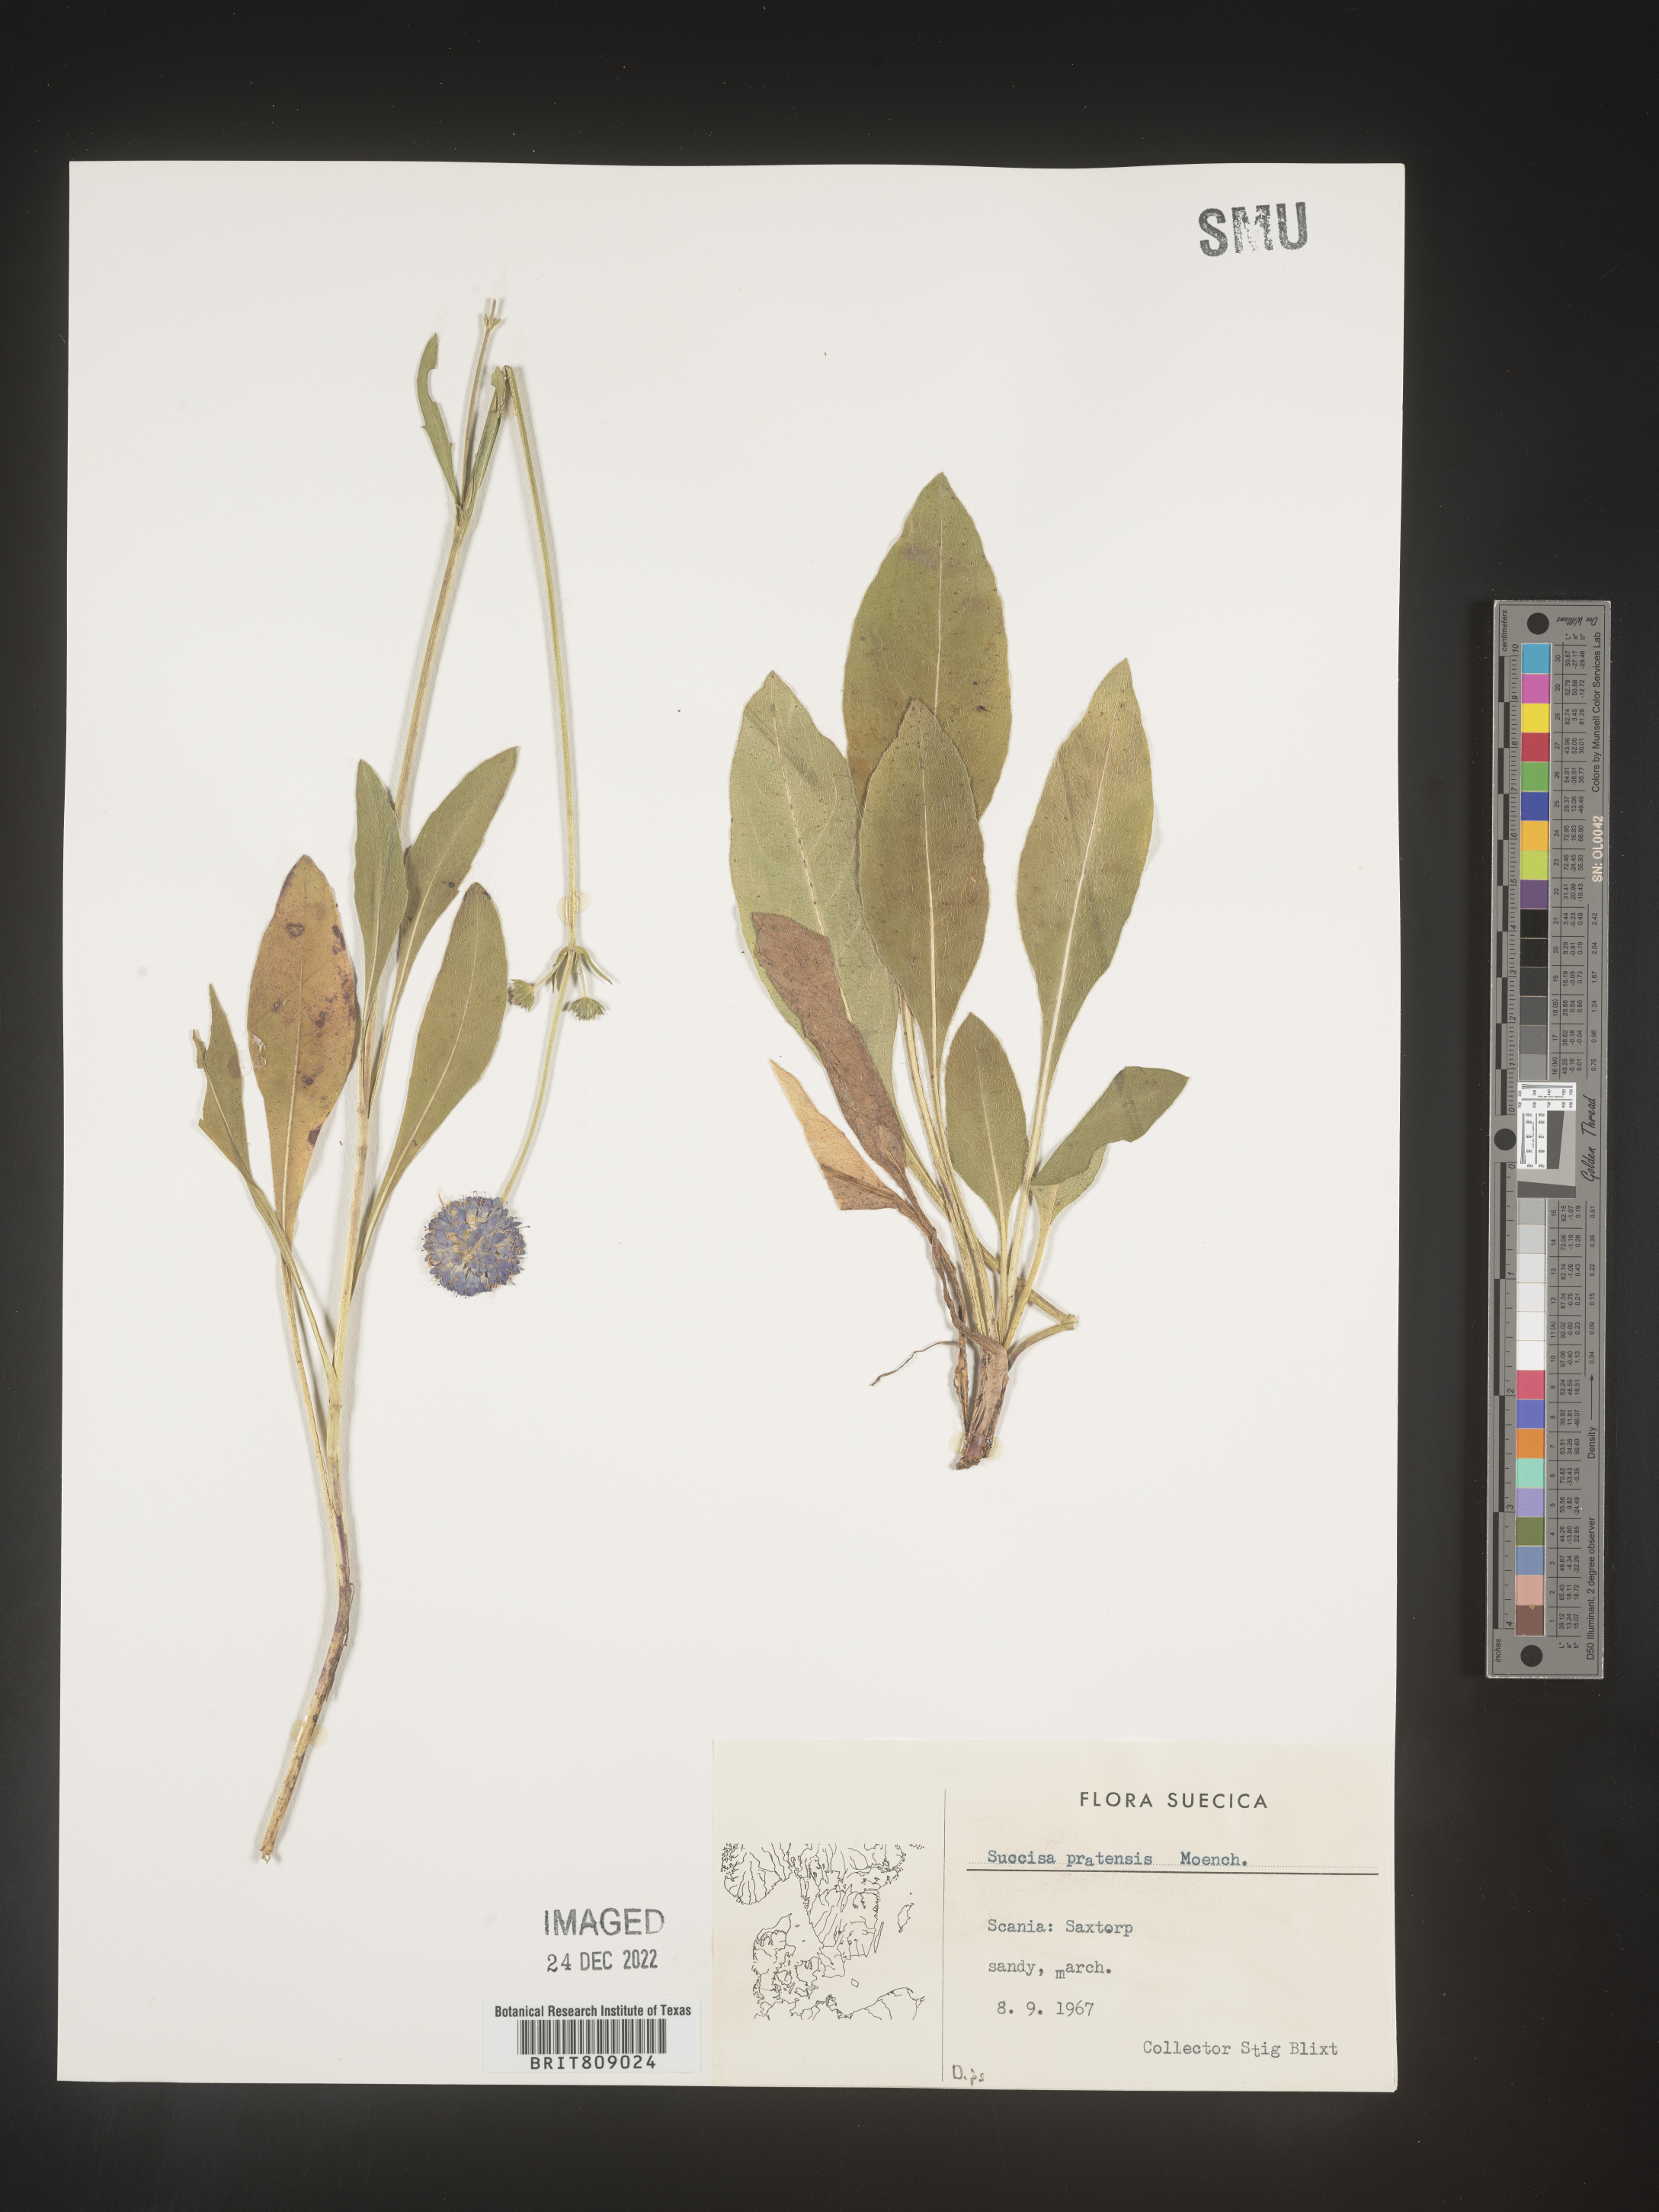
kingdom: Plantae
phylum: Tracheophyta
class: Magnoliopsida
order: Dipsacales
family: Caprifoliaceae
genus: Succisa
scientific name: Succisa
